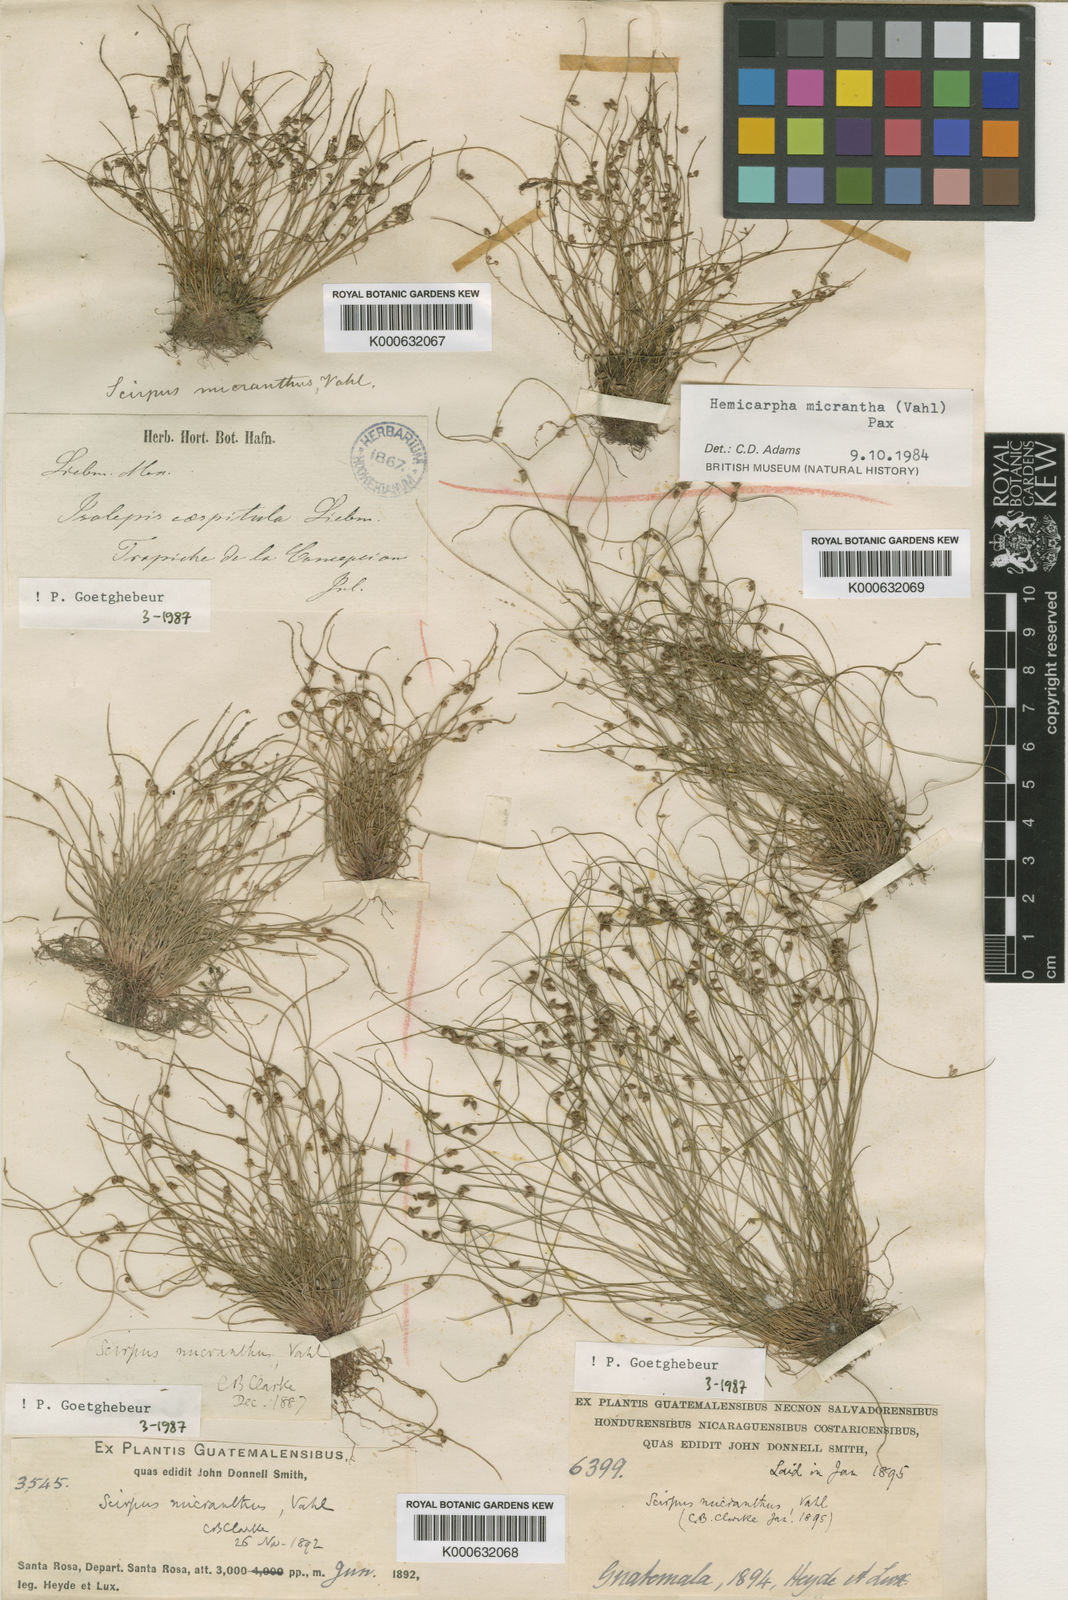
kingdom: Plantae
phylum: Tracheophyta
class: Liliopsida
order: Poales
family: Cyperaceae
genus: Cyperus
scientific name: Cyperus subsquarrosus
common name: Dwarf bulrush
